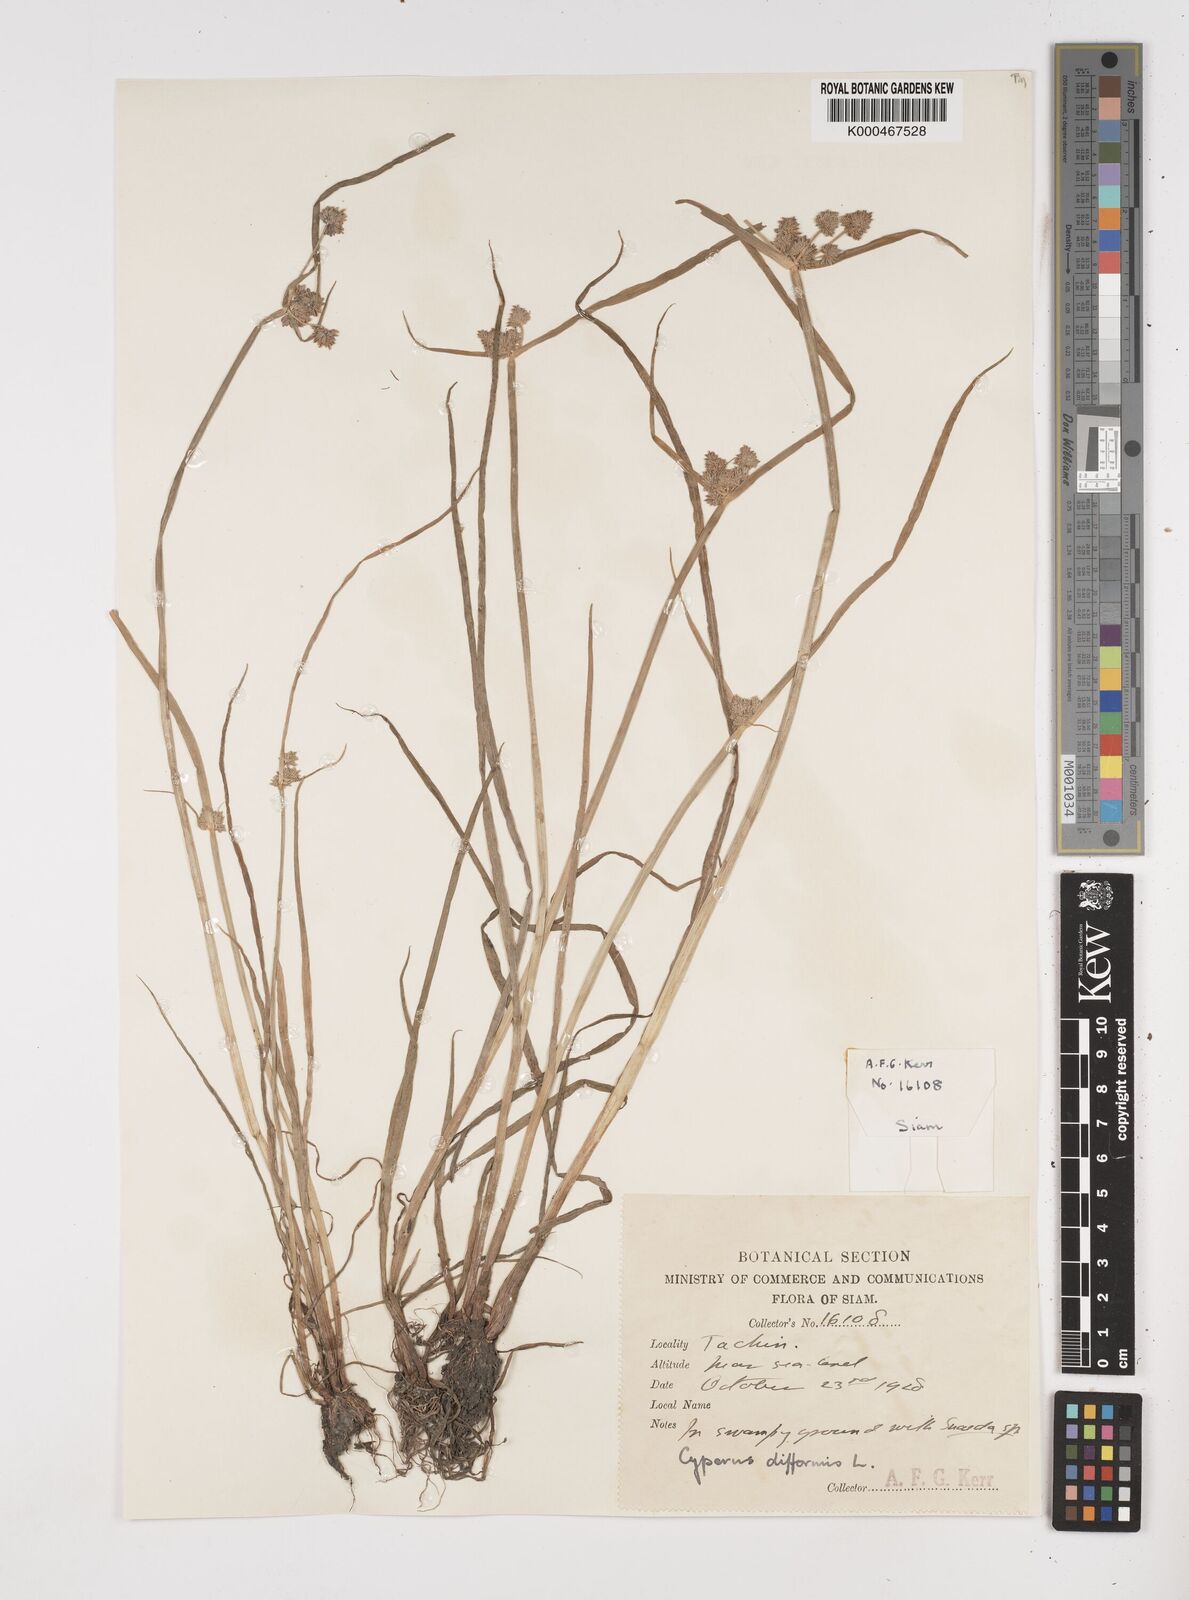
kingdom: Plantae
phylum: Tracheophyta
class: Liliopsida
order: Poales
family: Cyperaceae
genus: Cyperus
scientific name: Cyperus difformis
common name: Variable flatsedge
